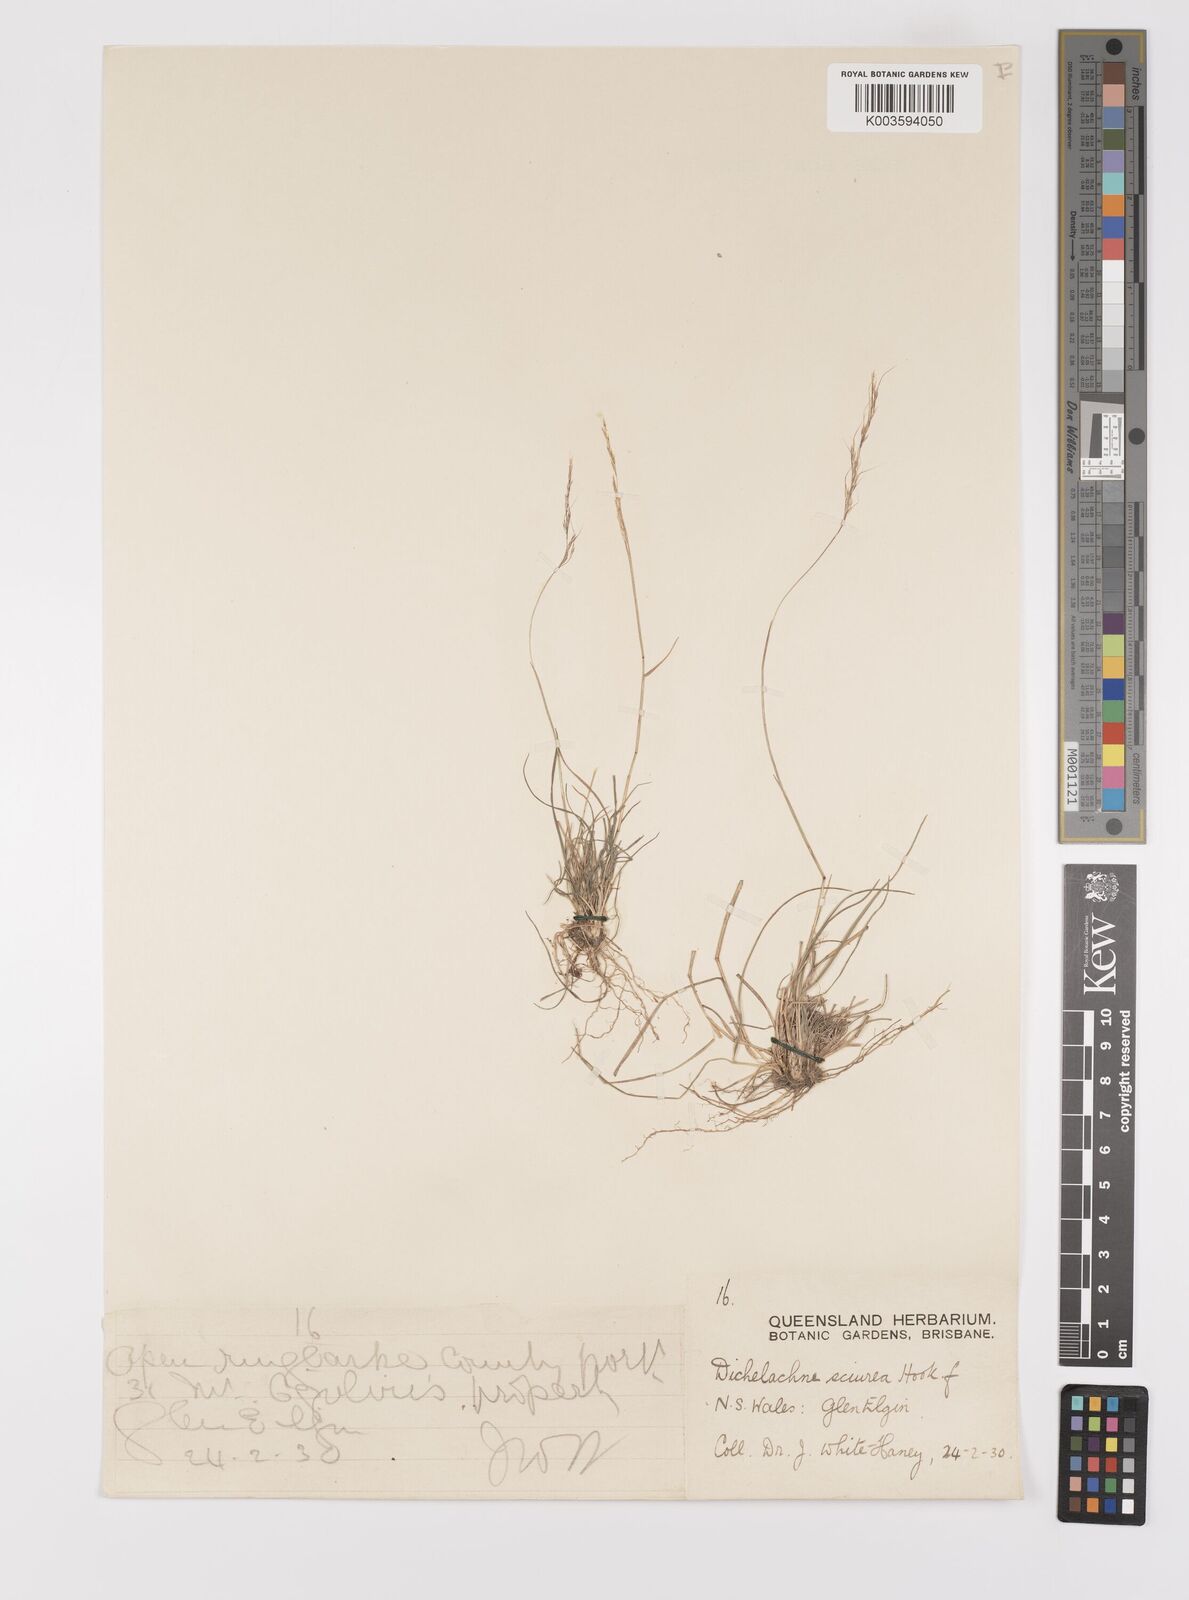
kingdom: Plantae
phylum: Tracheophyta
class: Liliopsida
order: Poales
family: Poaceae
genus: Dichelachne
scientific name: Dichelachne rara
